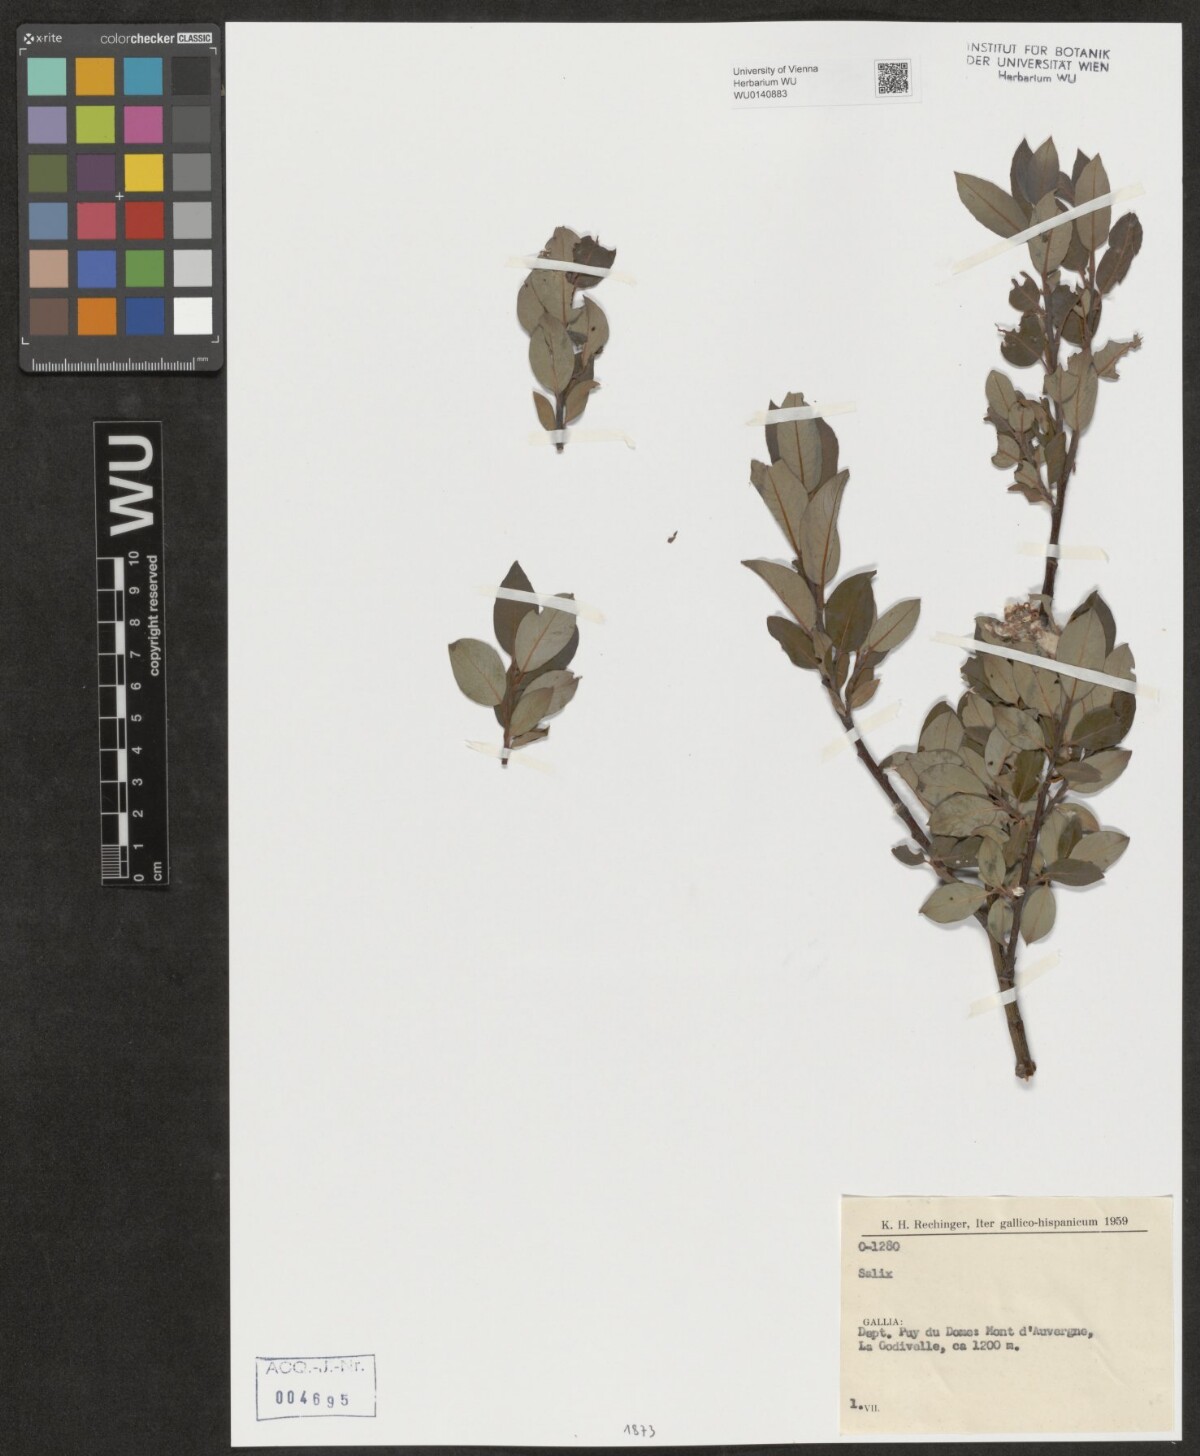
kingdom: Plantae
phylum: Tracheophyta
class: Magnoliopsida
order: Malpighiales
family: Salicaceae
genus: Salix
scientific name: Salix
